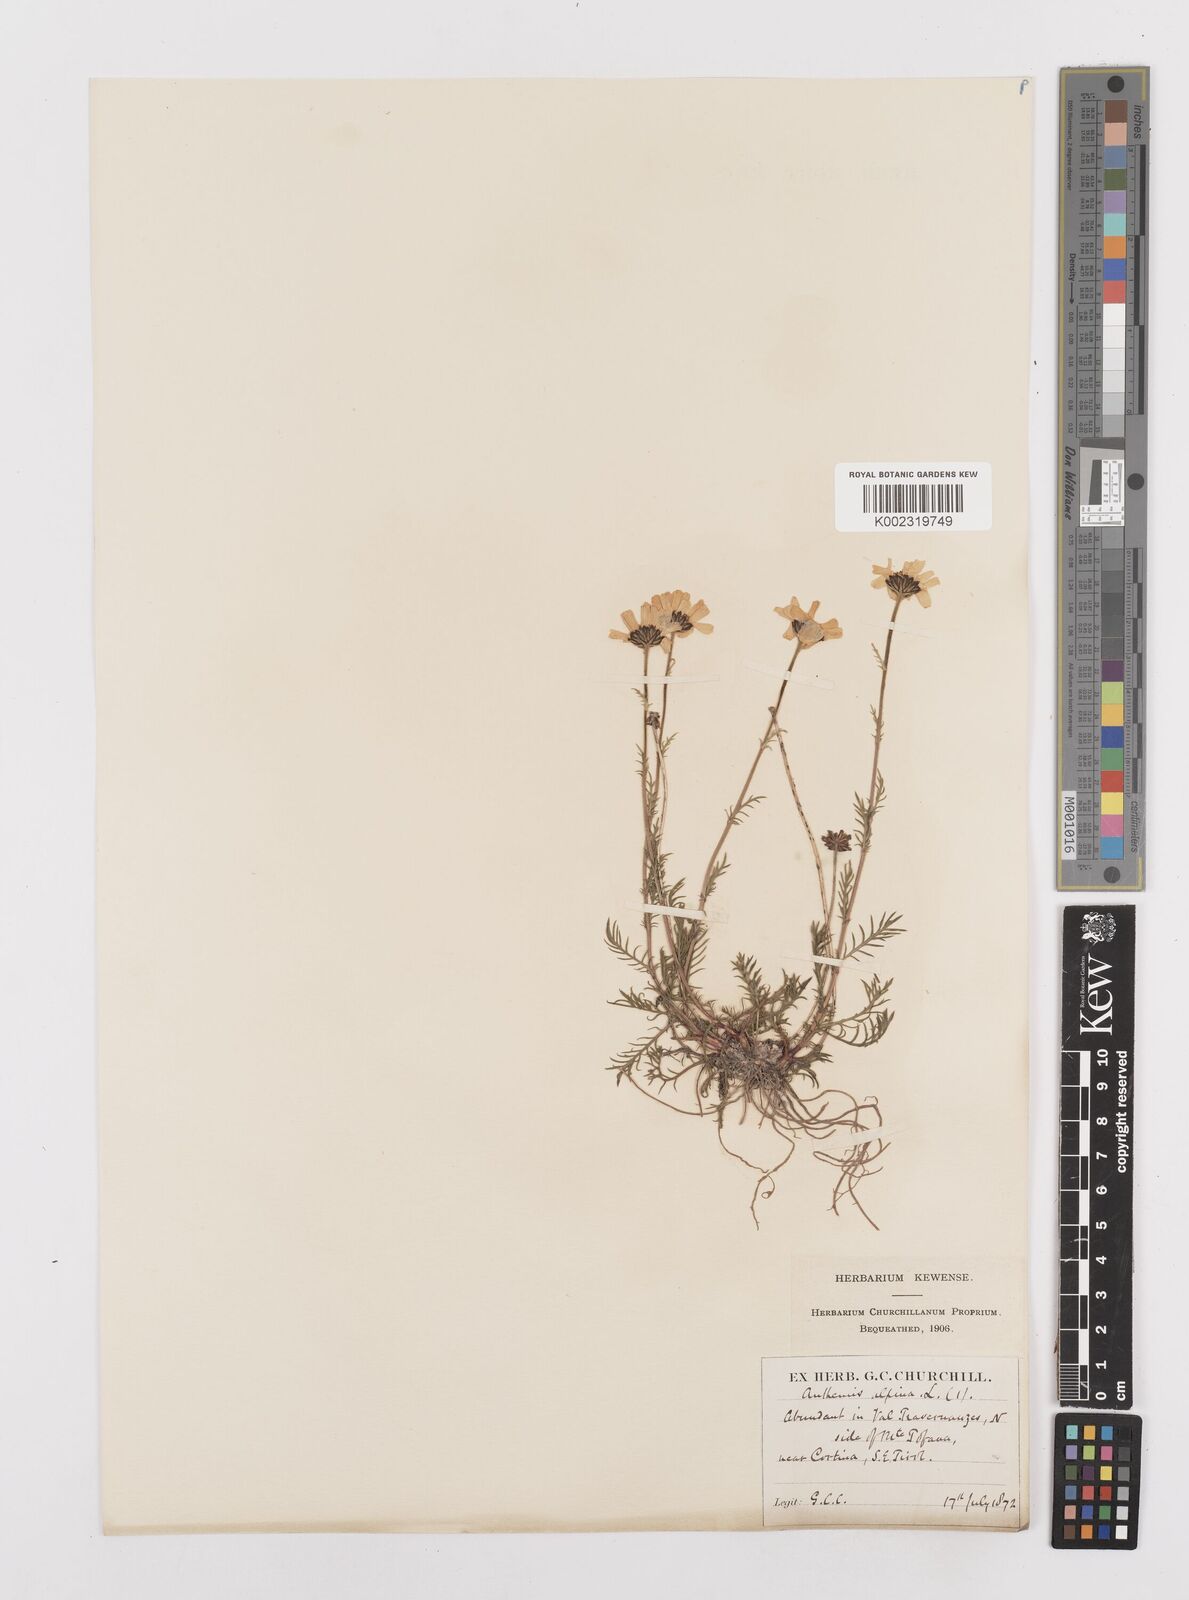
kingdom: Plantae
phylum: Tracheophyta
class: Magnoliopsida
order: Asterales
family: Asteraceae
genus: Achillea
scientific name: Achillea oxyloba
